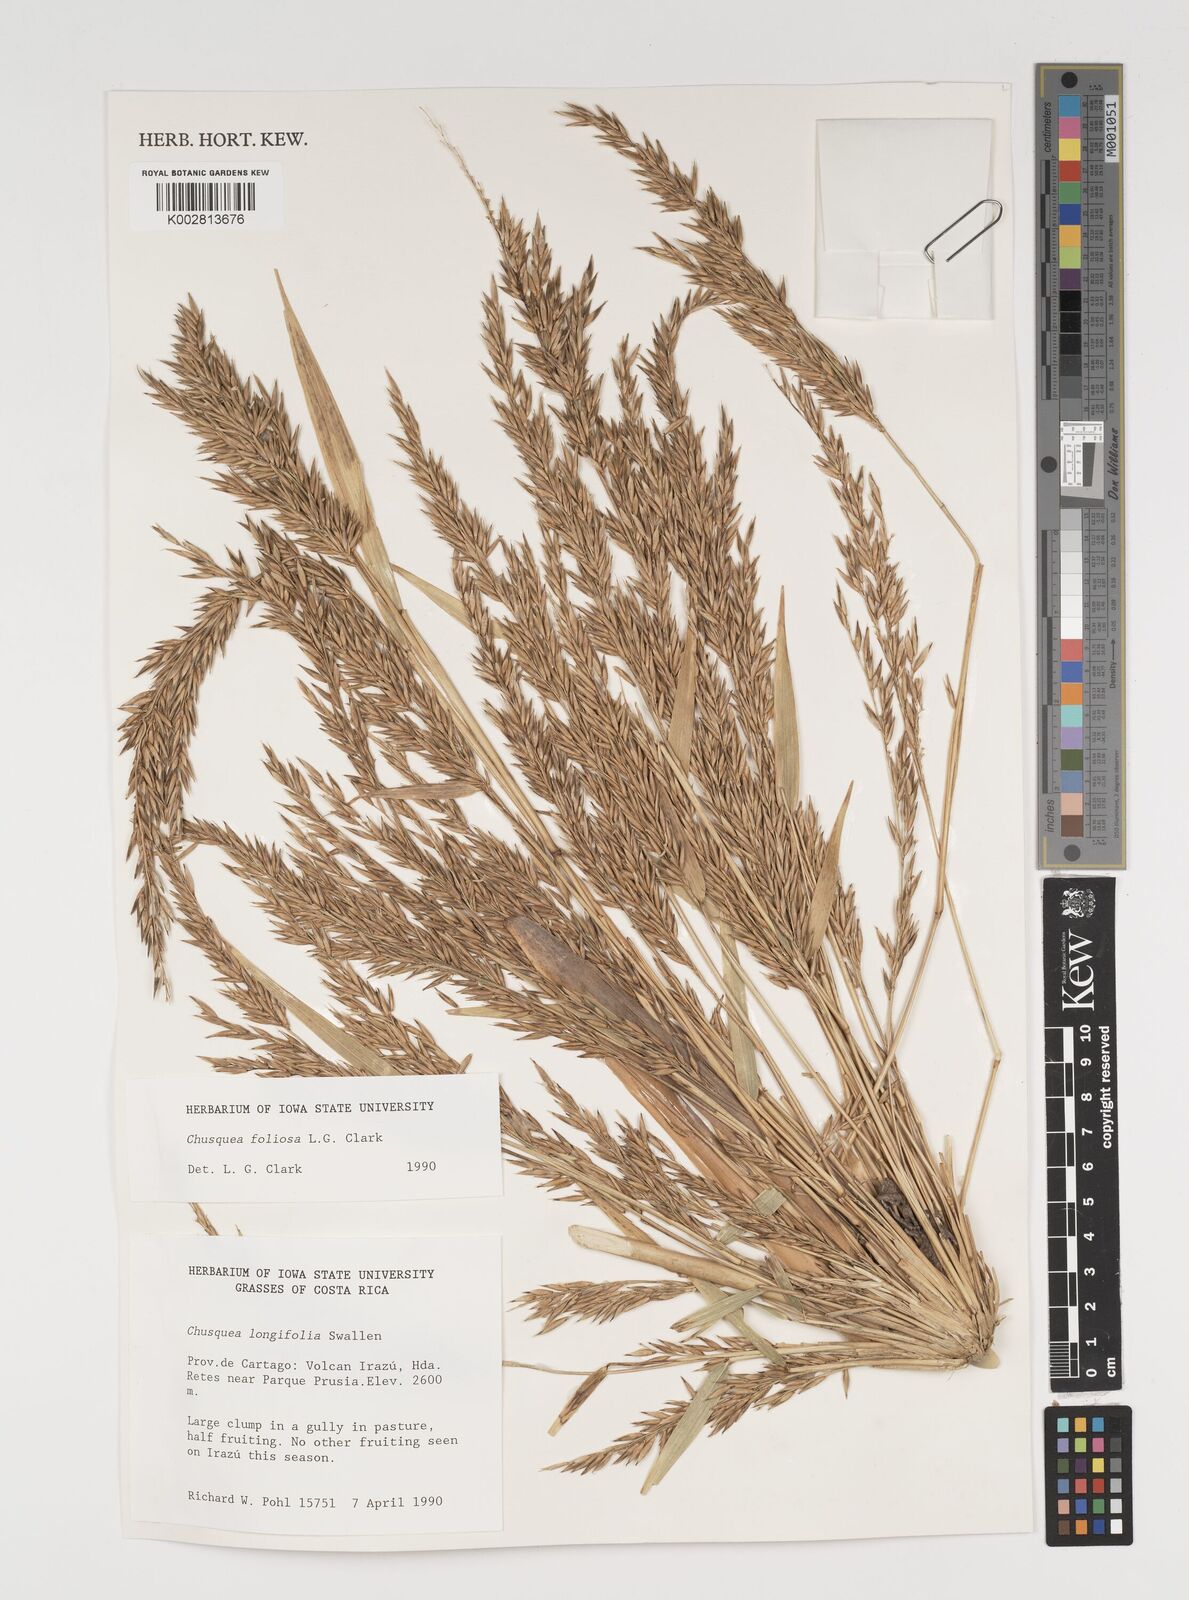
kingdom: Plantae
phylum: Tracheophyta
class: Liliopsida
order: Poales
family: Poaceae
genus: Chusquea
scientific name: Chusquea foliosa
